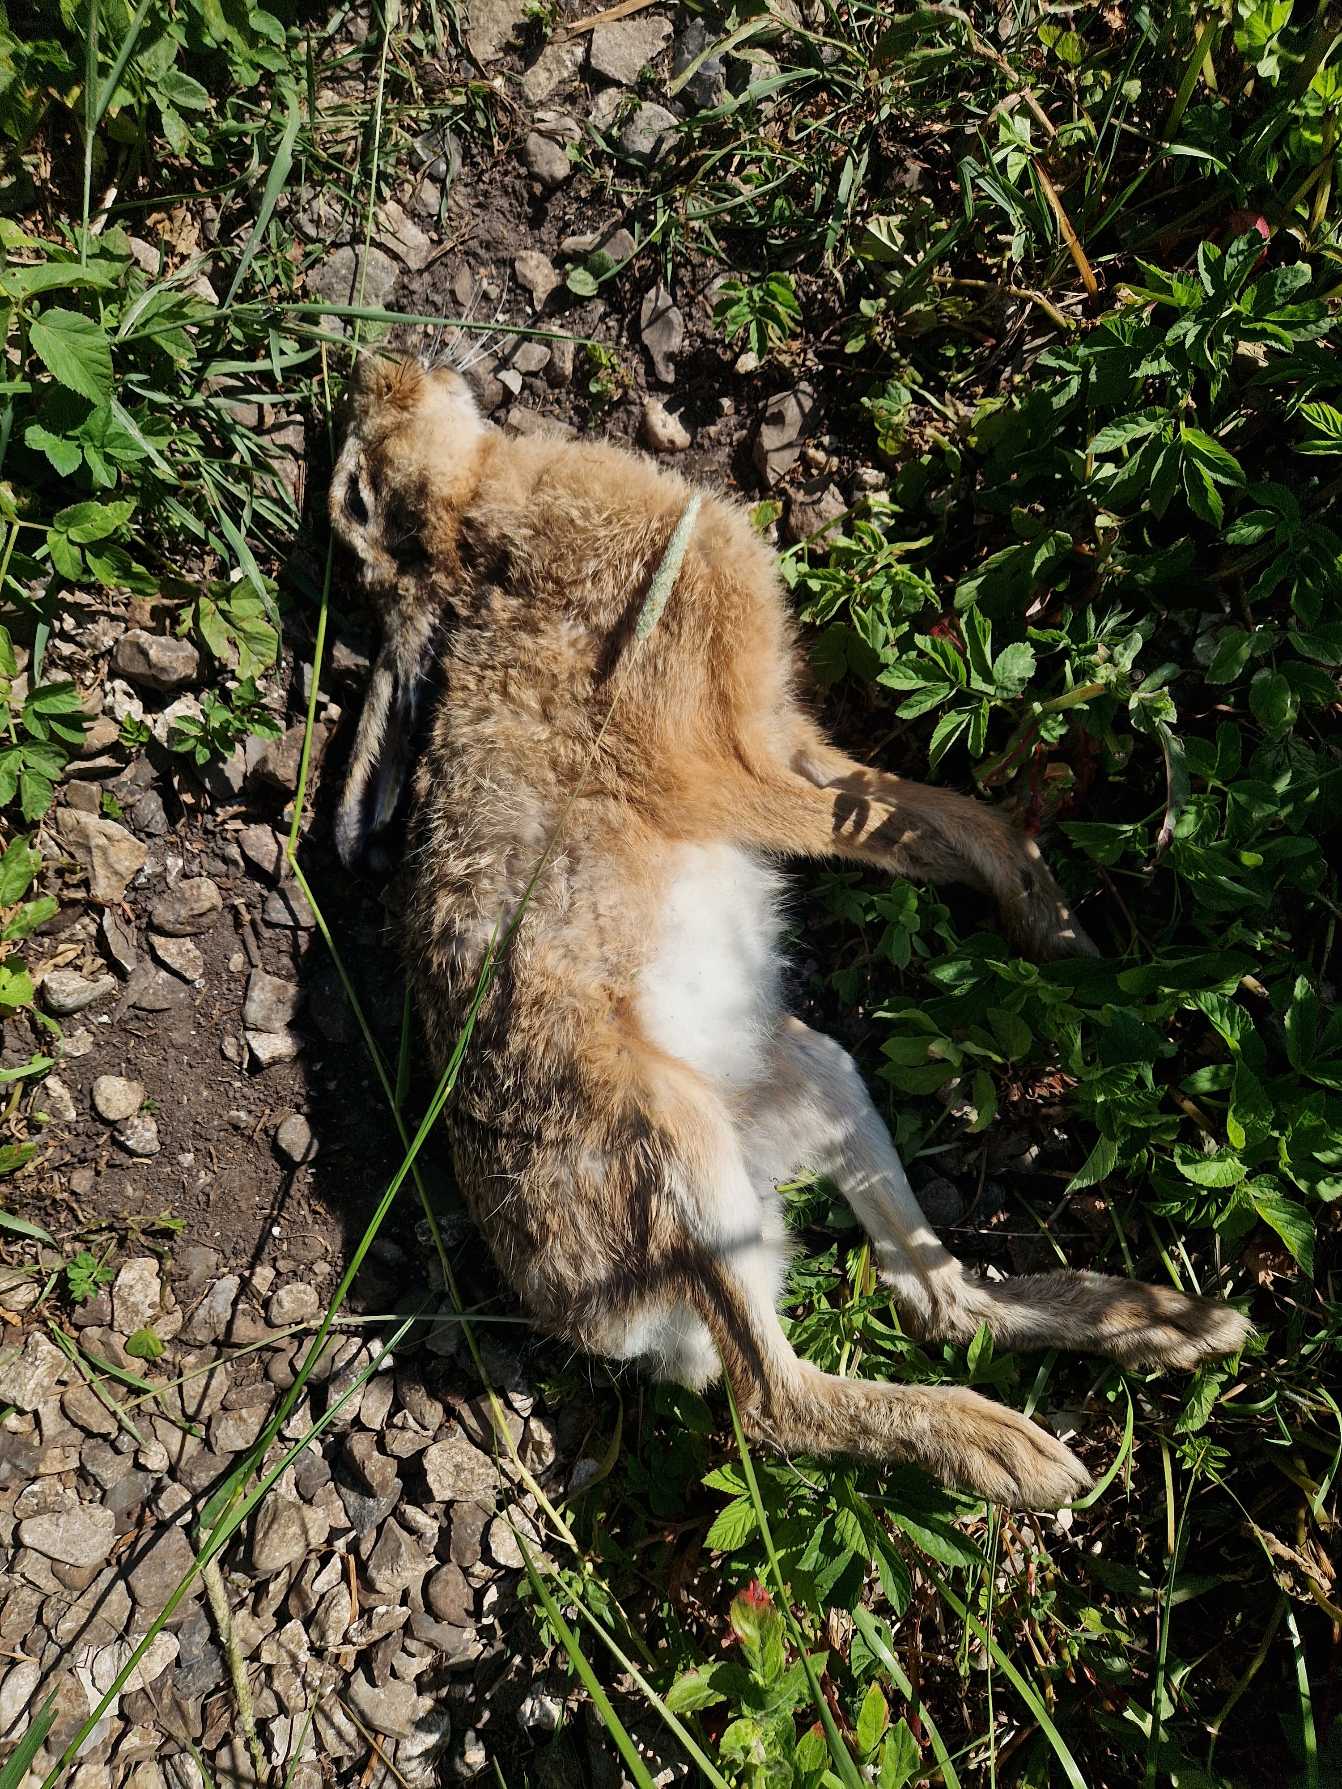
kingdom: Animalia
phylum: Chordata
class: Mammalia
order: Lagomorpha
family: Leporidae
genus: Lepus
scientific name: Lepus europaeus
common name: Hare
